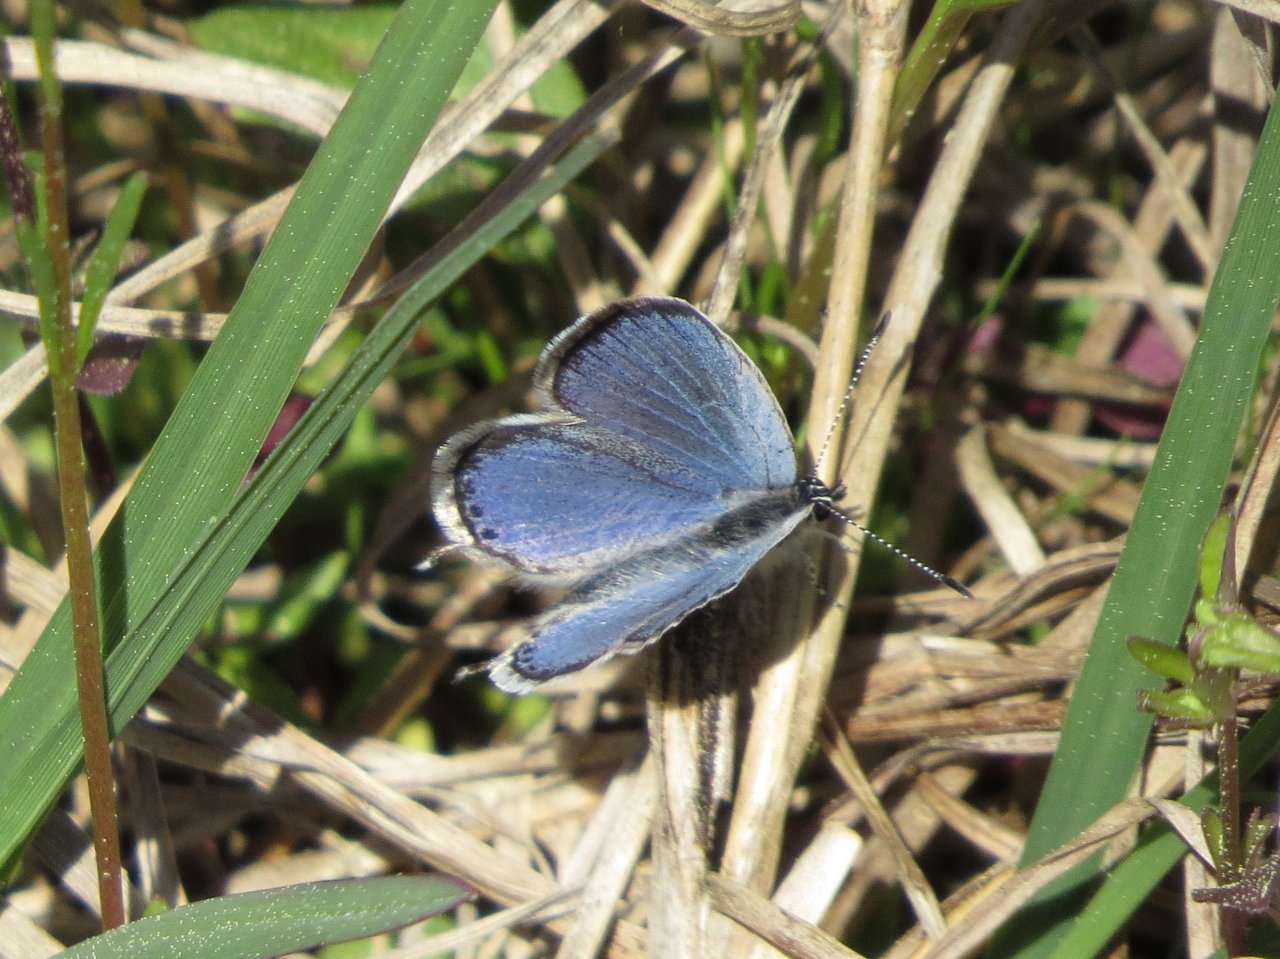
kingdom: Animalia
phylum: Arthropoda
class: Insecta
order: Lepidoptera
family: Lycaenidae
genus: Elkalyce
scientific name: Elkalyce comyntas
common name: Eastern Tailed-Blue
